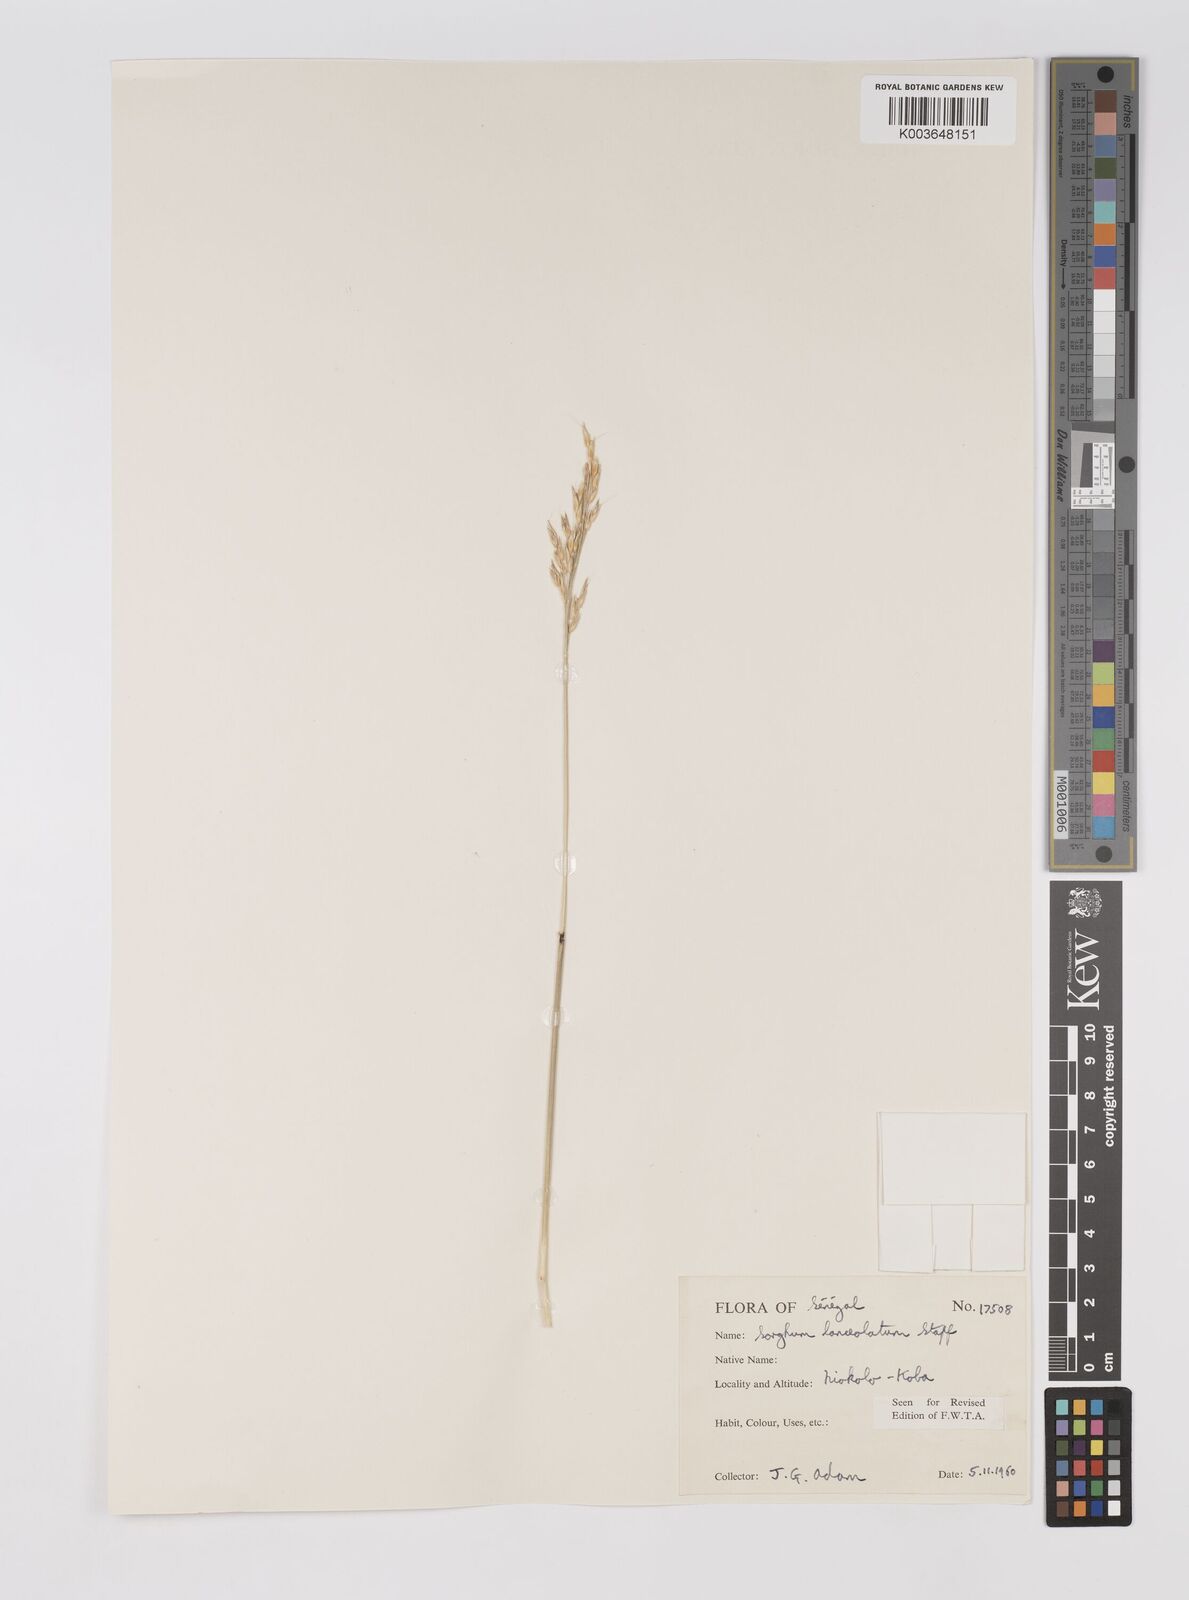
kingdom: Plantae
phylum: Tracheophyta
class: Liliopsida
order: Poales
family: Poaceae
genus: Sorghum
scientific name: Sorghum arundinaceum
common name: Sorghum
